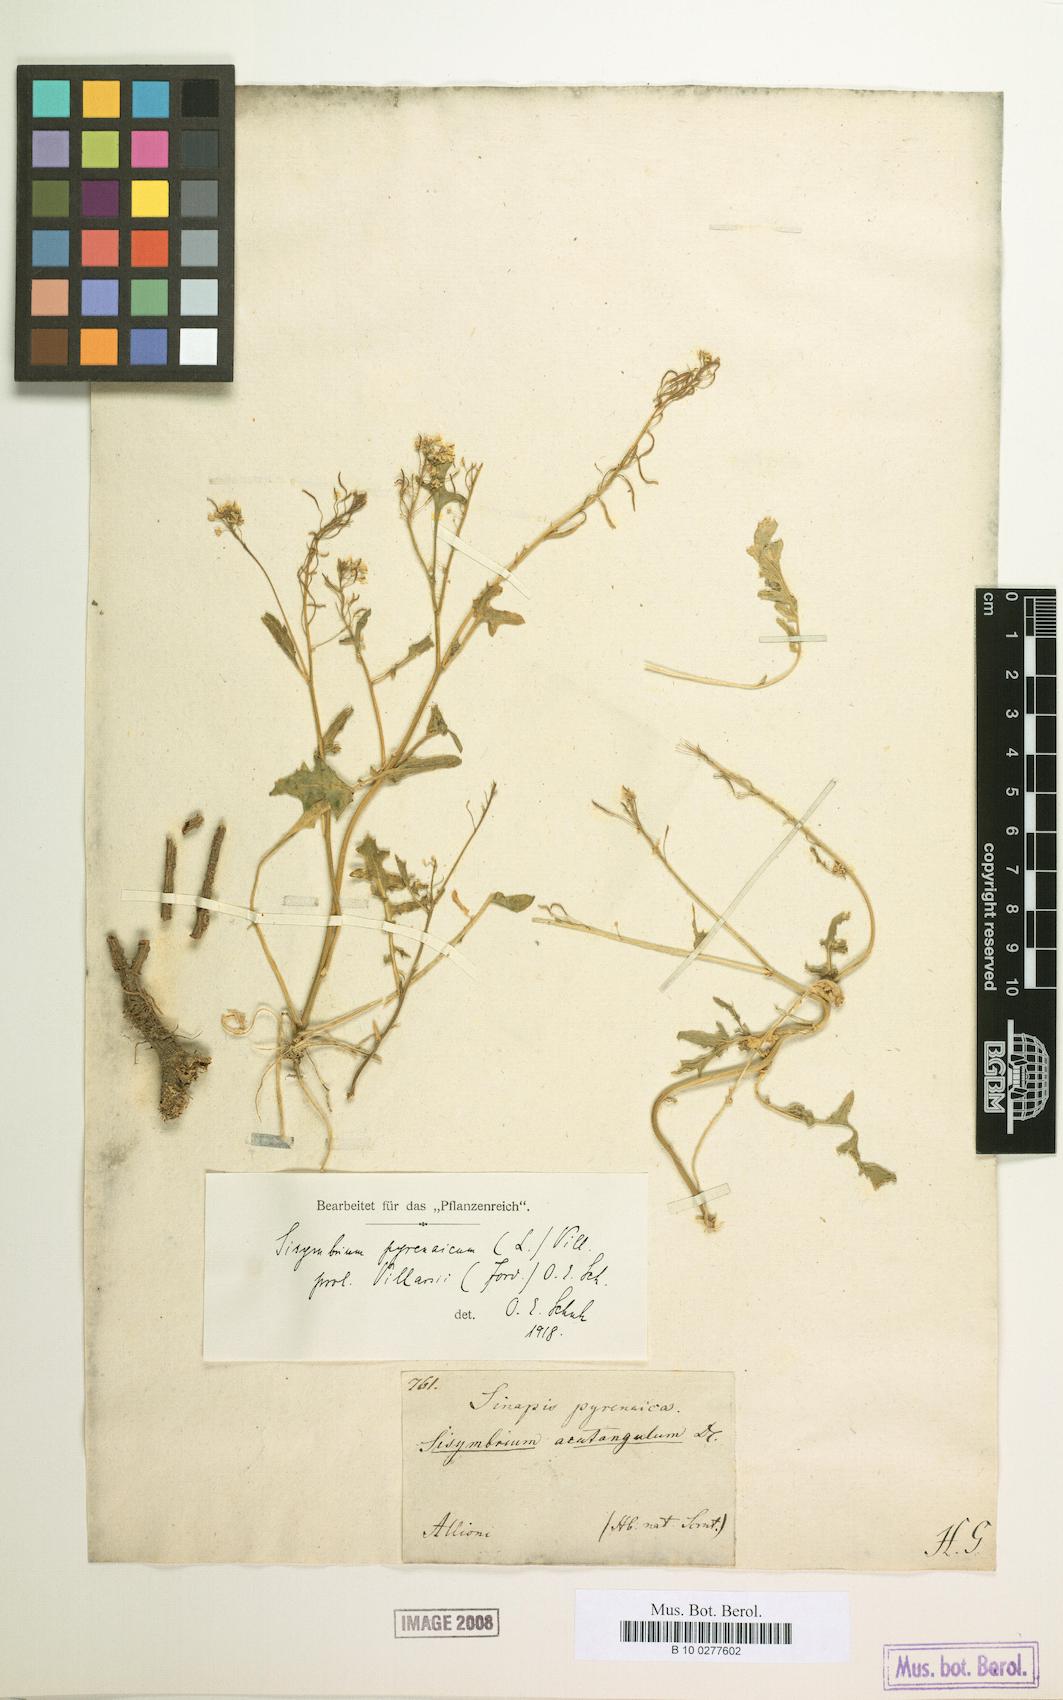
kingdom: Plantae
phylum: Tracheophyta
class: Magnoliopsida
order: Brassicales
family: Brassicaceae
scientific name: Brassicaceae
